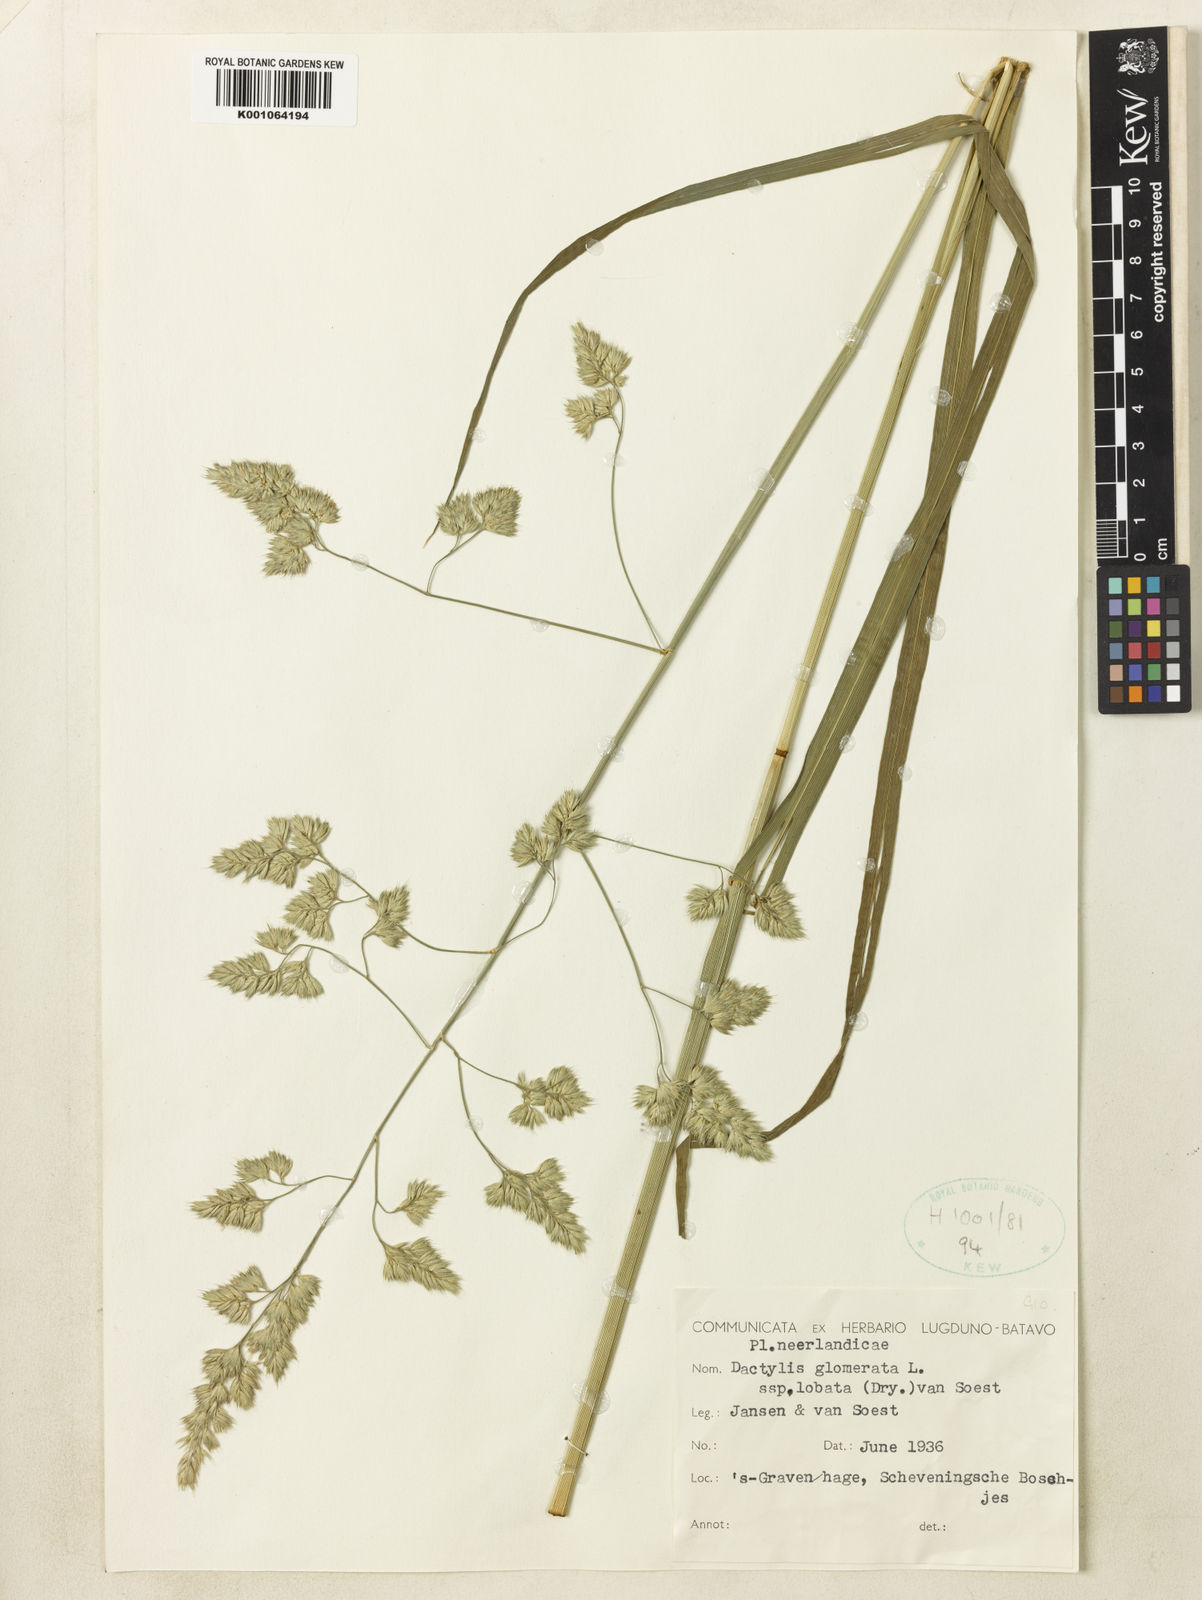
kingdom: Plantae
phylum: Tracheophyta
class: Liliopsida
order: Poales
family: Poaceae
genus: Dactylis
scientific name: Dactylis glomerata
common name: Orchardgrass
